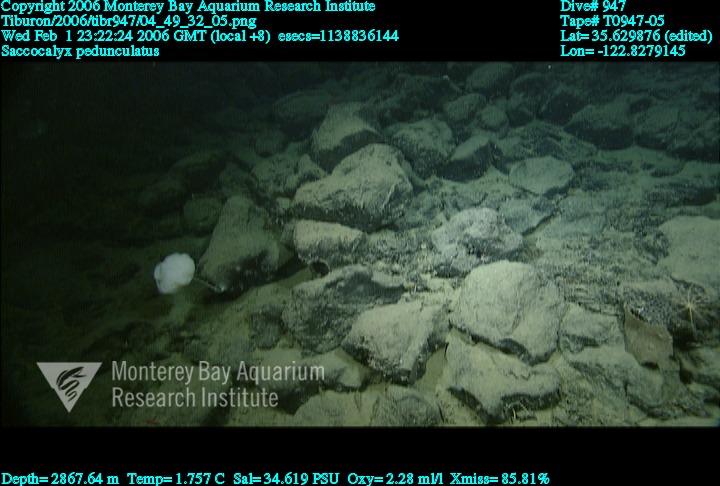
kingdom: Animalia
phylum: Porifera
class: Hexactinellida
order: Lyssacinosida
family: Euplectellidae
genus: Saccocalyx
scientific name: Saccocalyx pedunculatus
